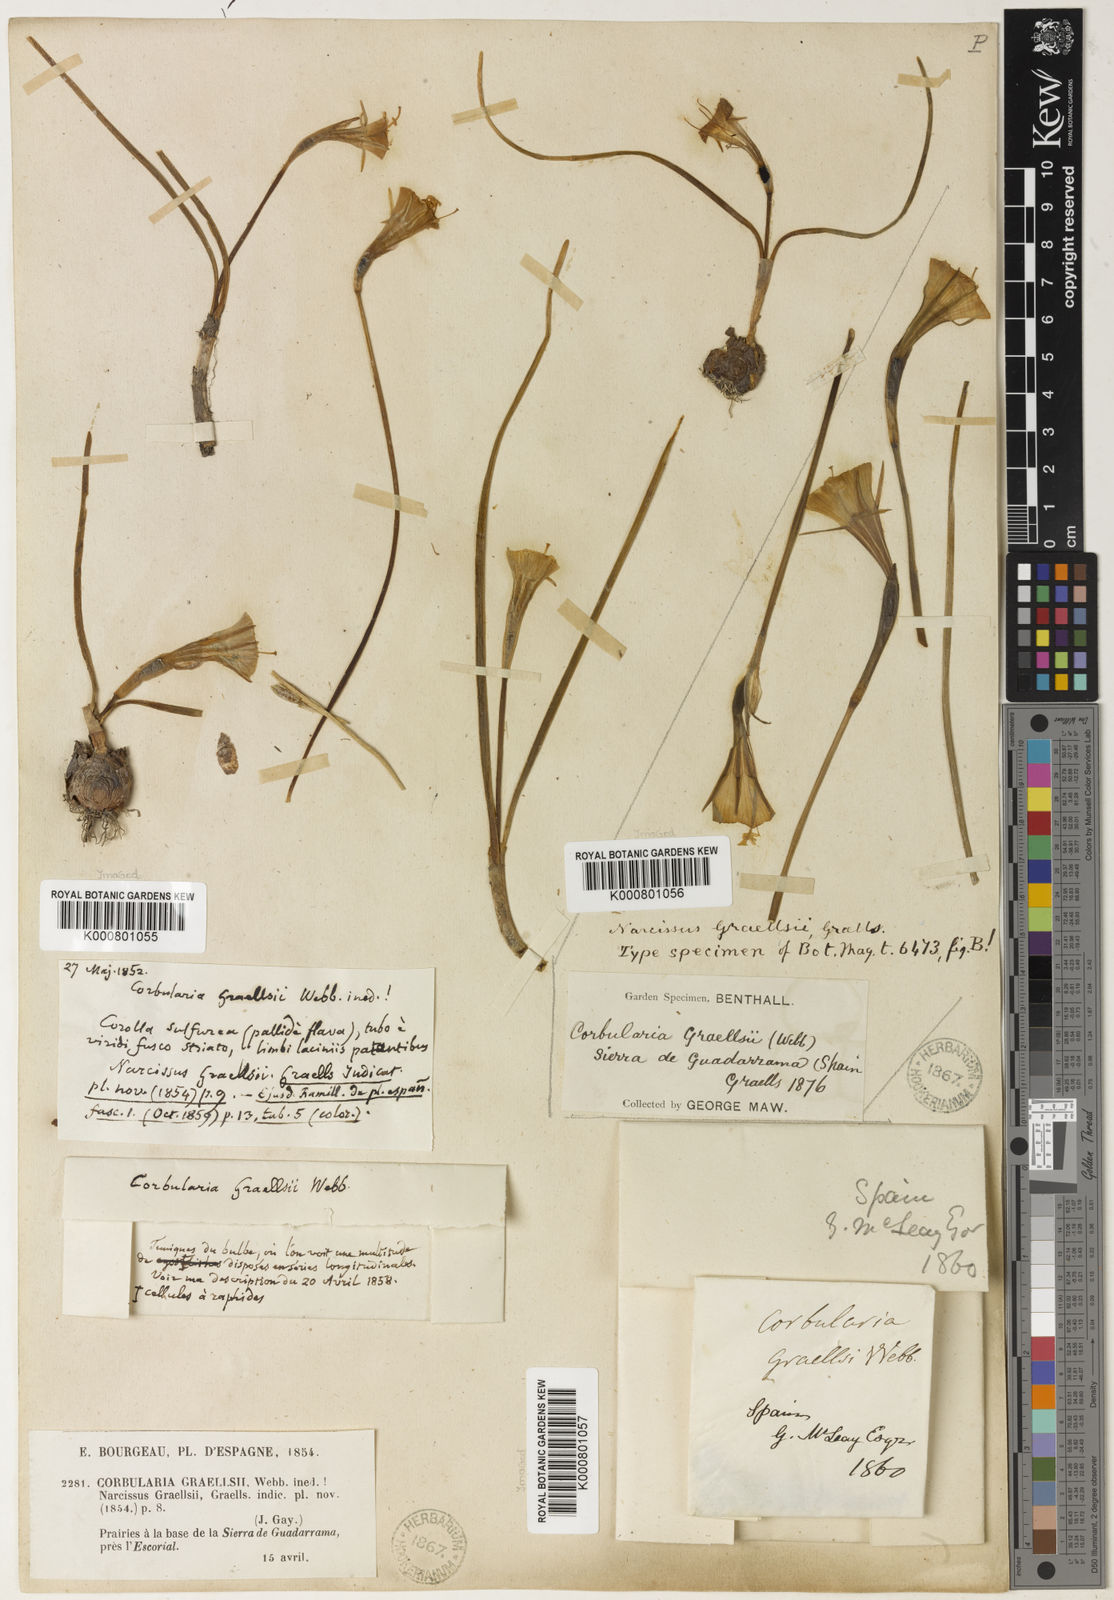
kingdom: Plantae
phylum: Tracheophyta
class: Liliopsida
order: Asparagales
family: Amaryllidaceae
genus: Narcissus
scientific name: Narcissus bulbocodium
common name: Hoop-petticoat daffodil
